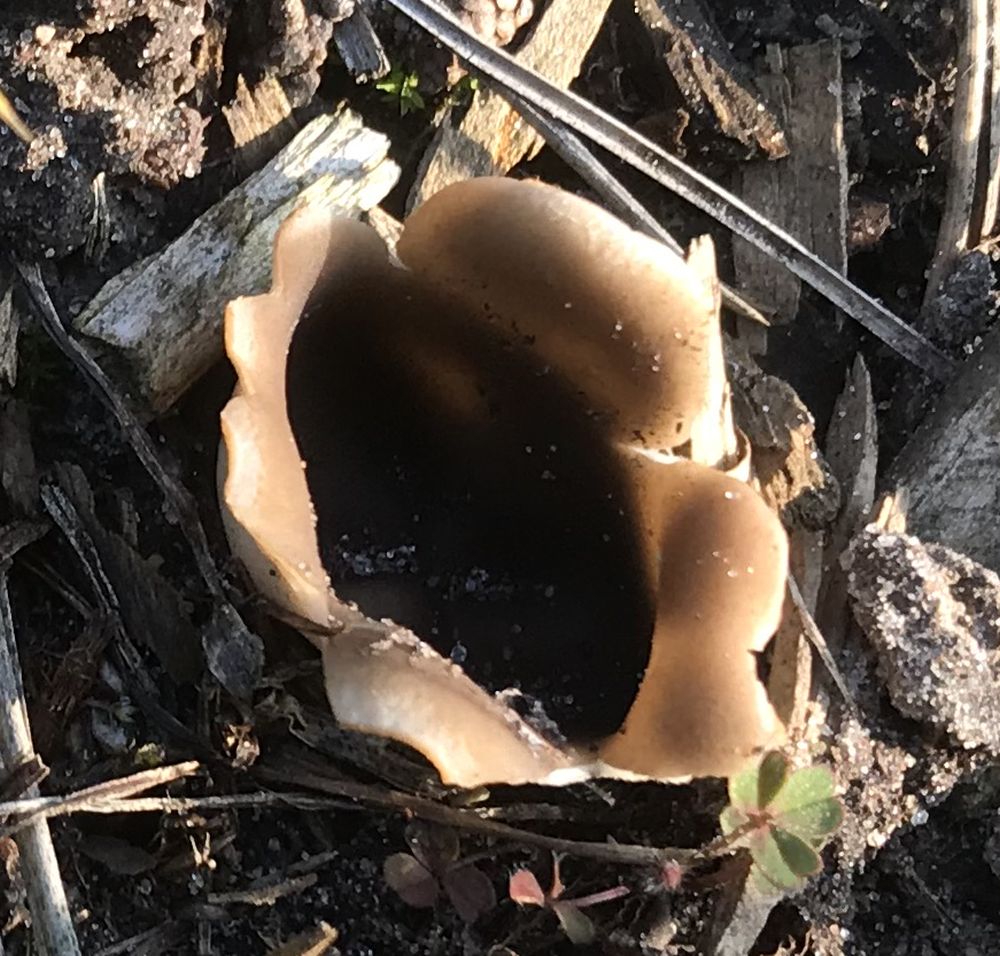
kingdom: Fungi
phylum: Ascomycota
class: Pezizomycetes
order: Pezizales
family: Helvellaceae
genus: Dissingia
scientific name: Dissingia leucomelaena
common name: sorthvid foldhat
